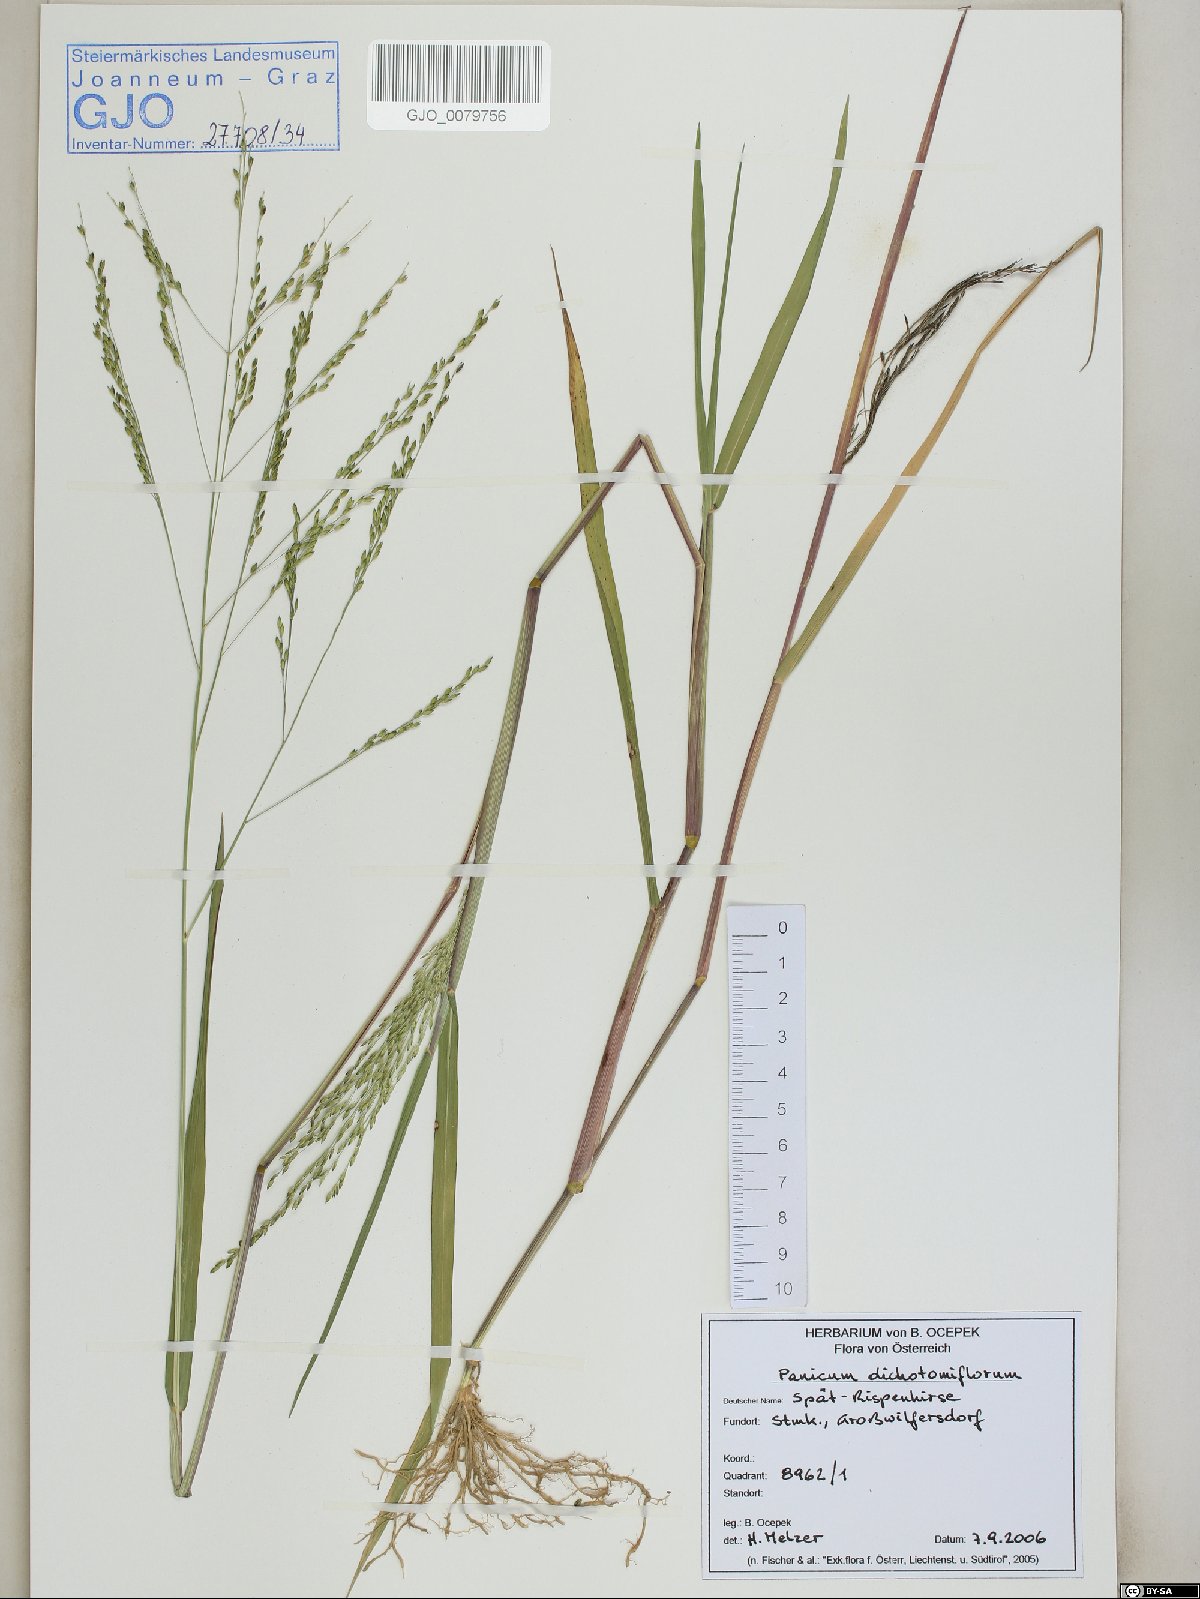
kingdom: Plantae
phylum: Tracheophyta
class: Liliopsida
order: Poales
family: Poaceae
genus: Panicum
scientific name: Panicum dichotomiflorum
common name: Autumn millet
